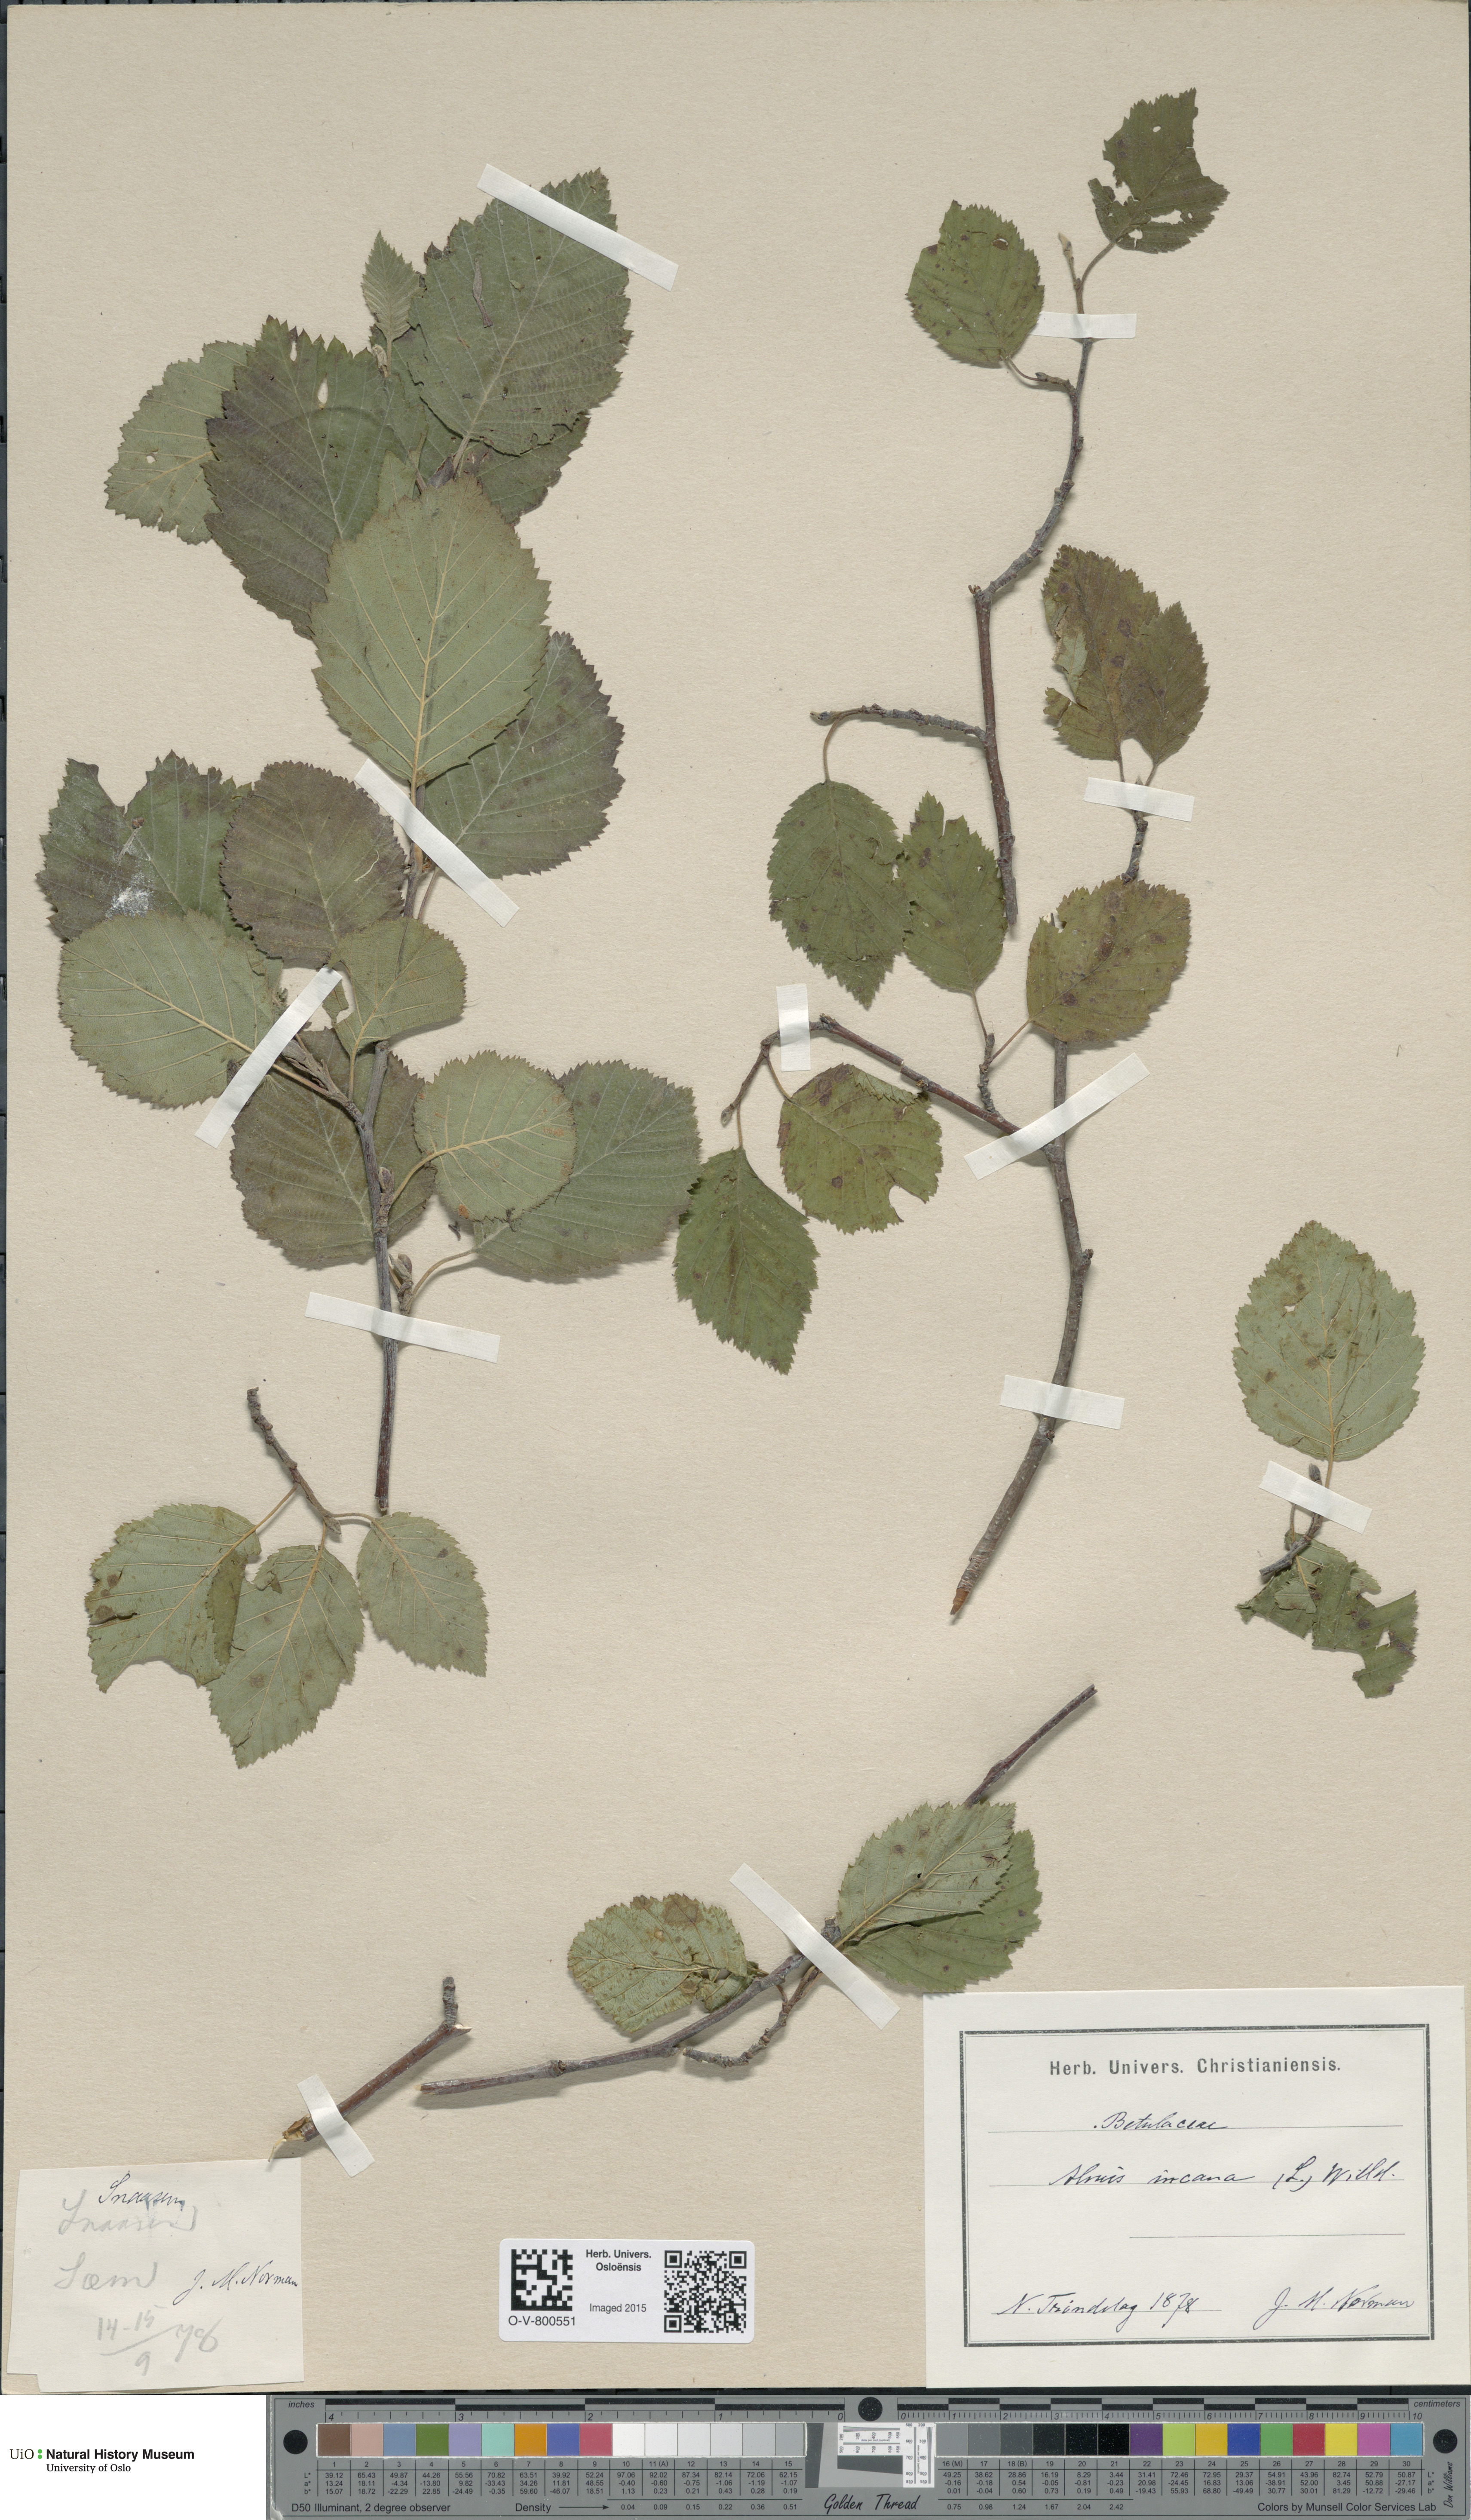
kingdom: Plantae
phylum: Tracheophyta
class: Magnoliopsida
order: Fagales
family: Betulaceae
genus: Alnus
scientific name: Alnus incana
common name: Grey alder
